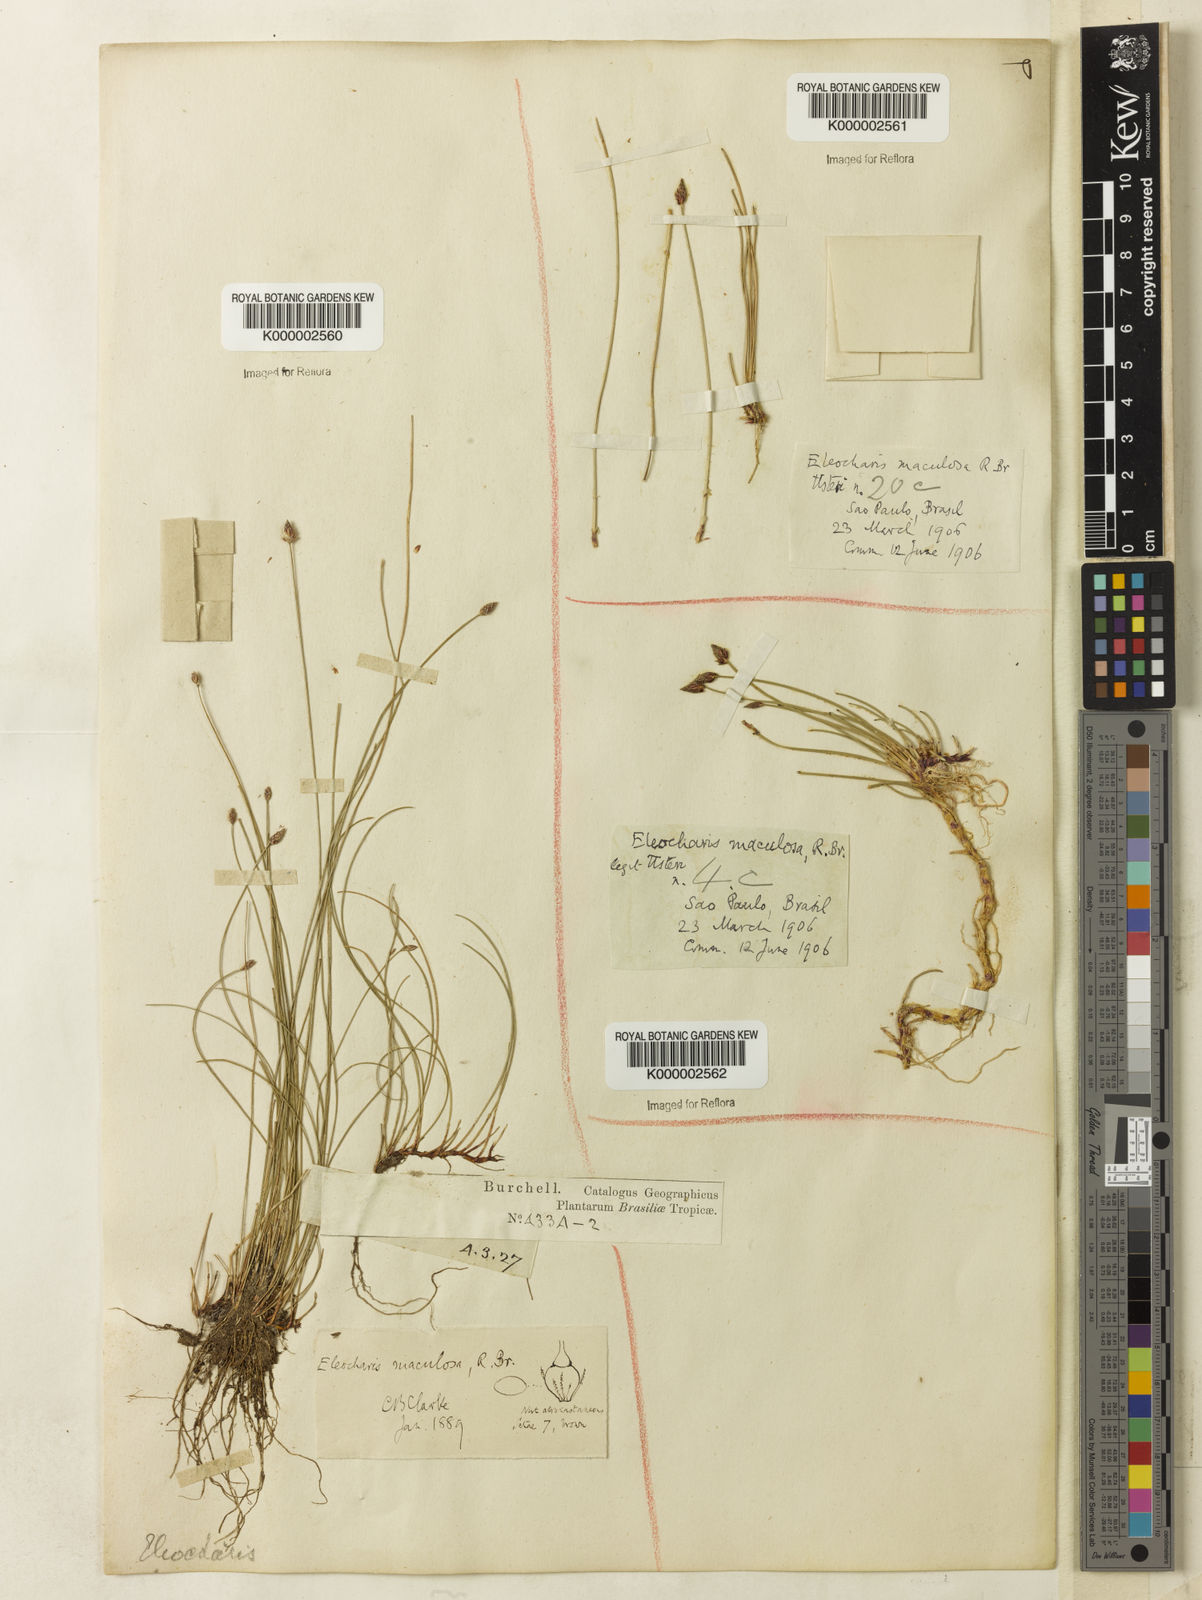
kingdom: Plantae
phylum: Tracheophyta
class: Liliopsida
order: Poales
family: Cyperaceae
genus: Eleocharis
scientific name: Eleocharis maculosa
